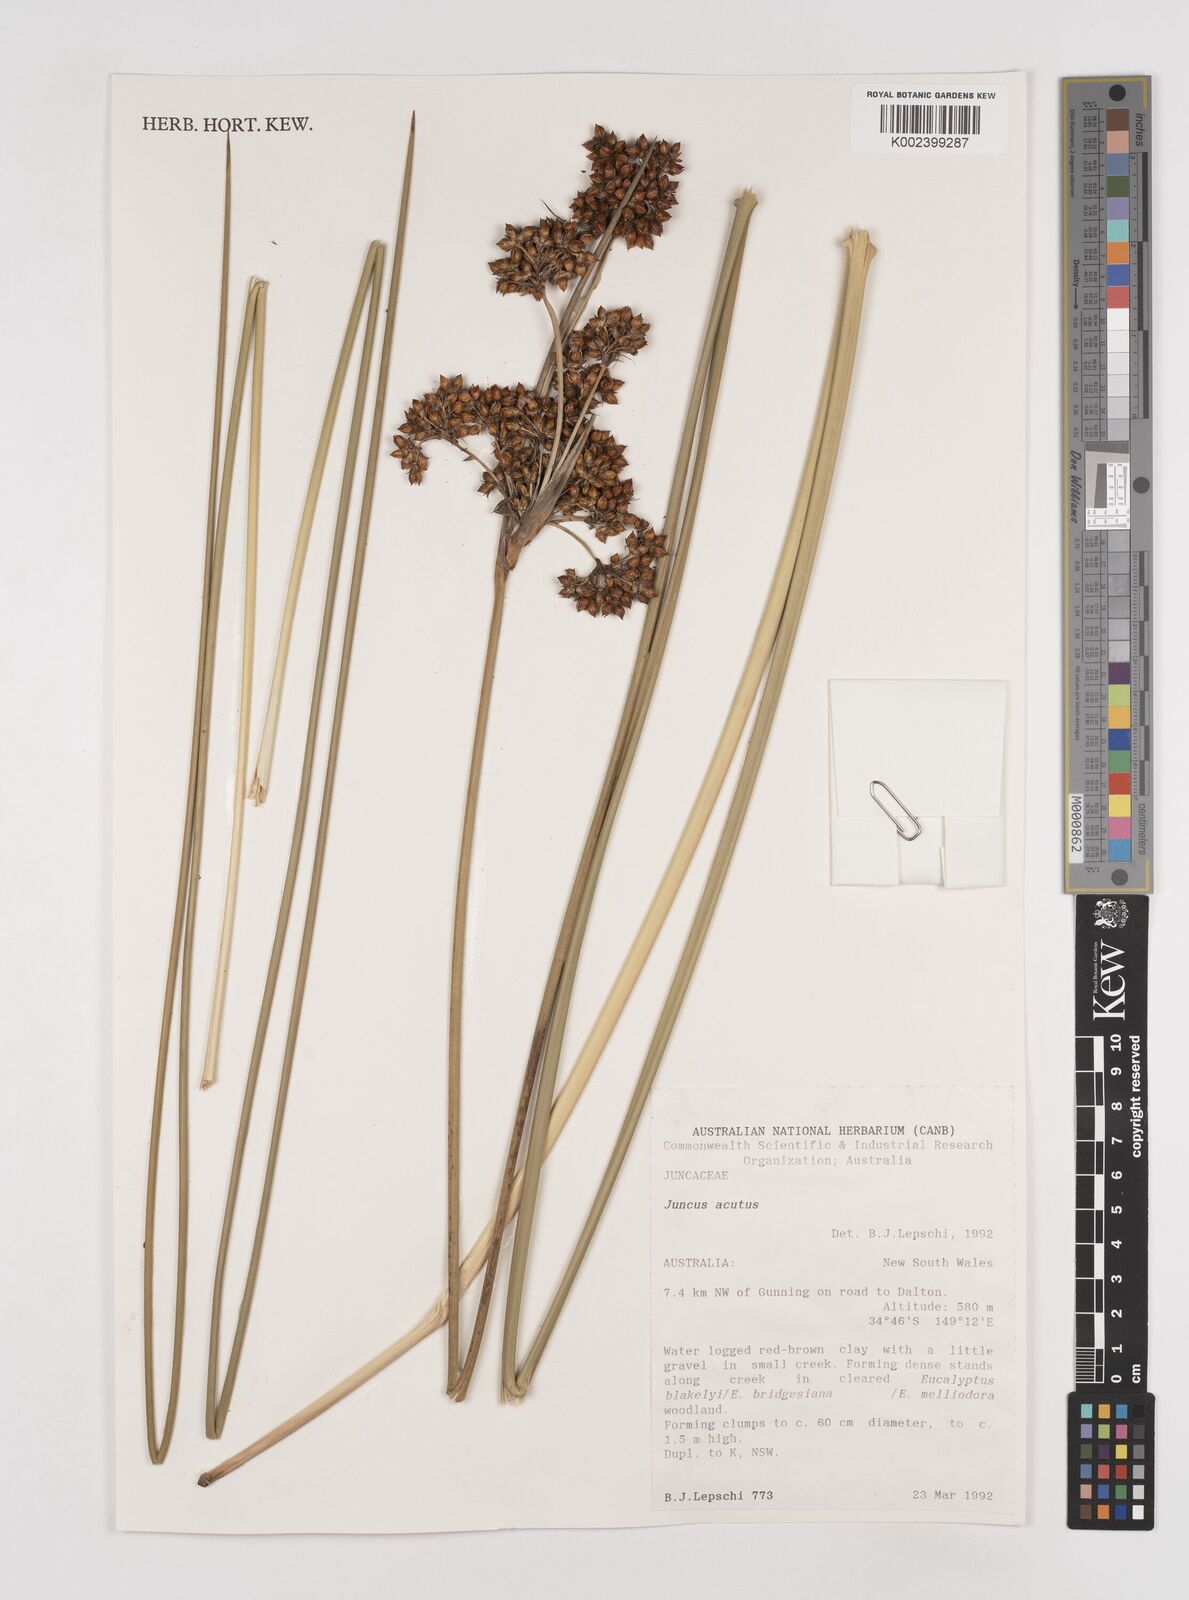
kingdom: Plantae
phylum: Tracheophyta
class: Liliopsida
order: Poales
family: Juncaceae
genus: Juncus
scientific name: Juncus acutus
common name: Sharp rush
